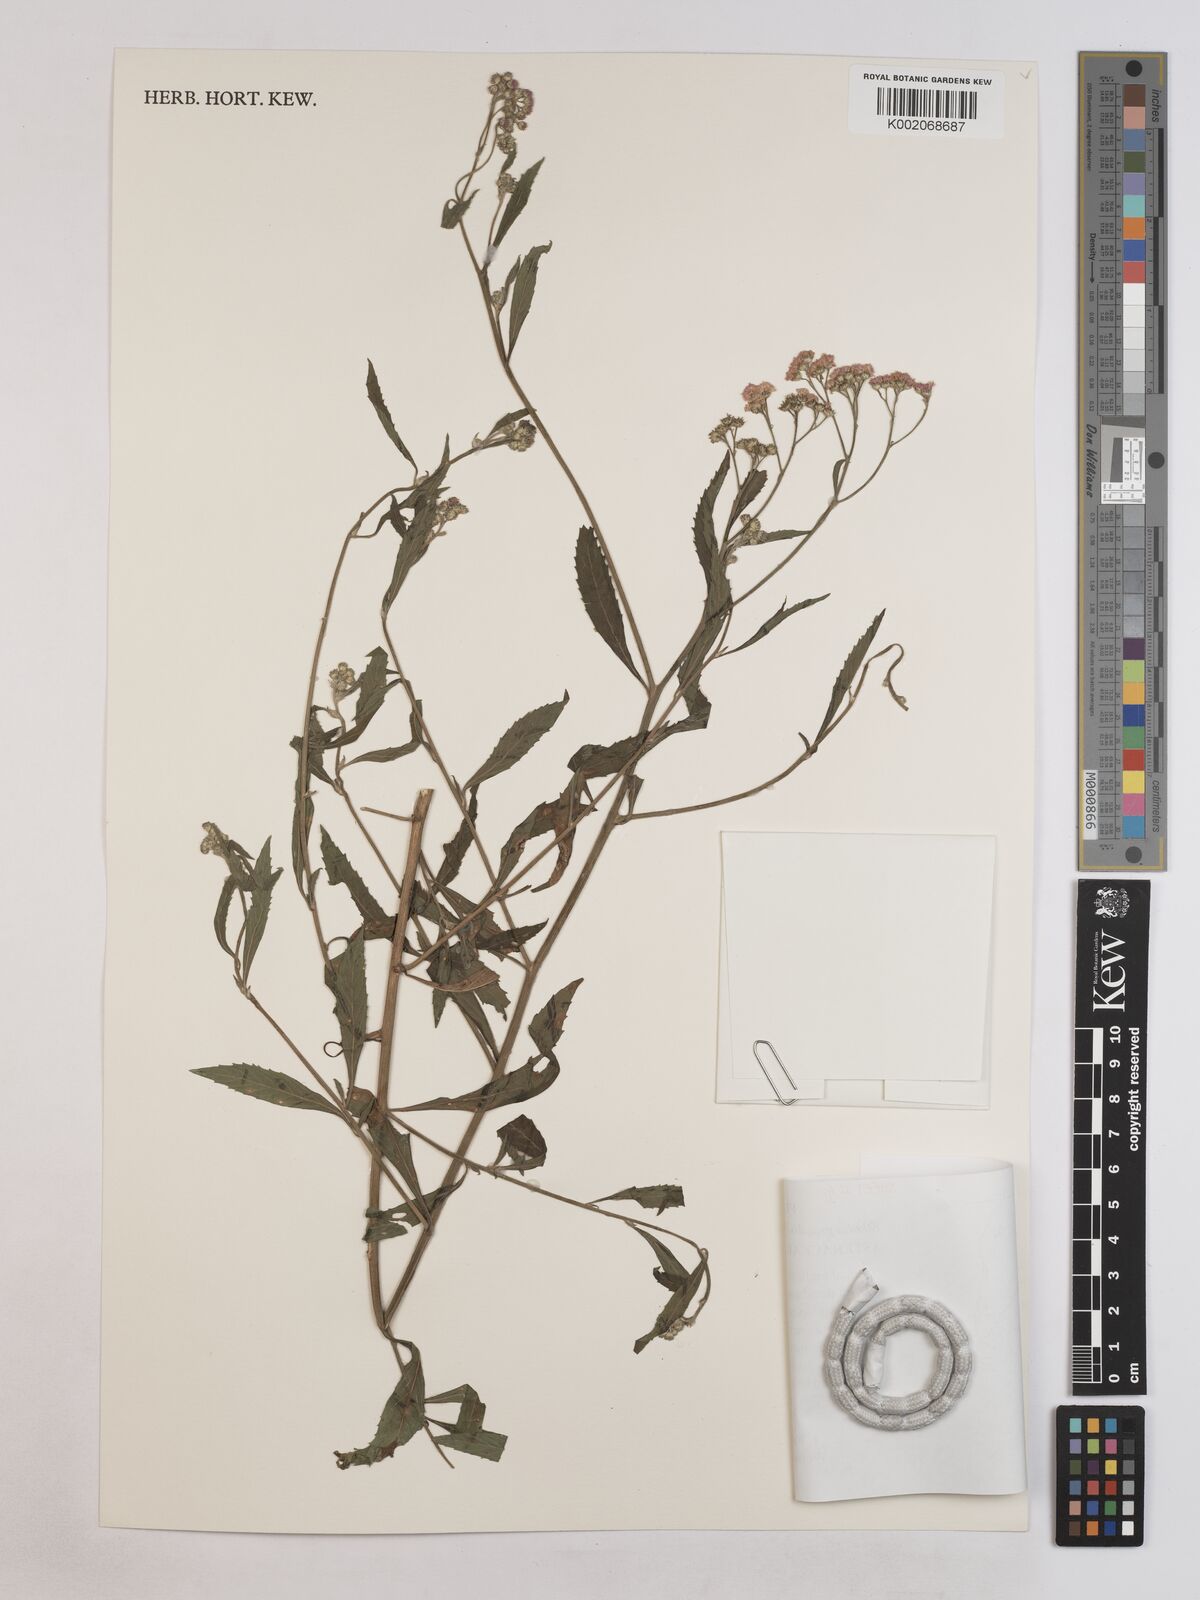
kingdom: Plantae
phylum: Tracheophyta
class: Magnoliopsida
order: Asterales
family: Asteraceae
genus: Ethulia
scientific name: Ethulia gracilis
